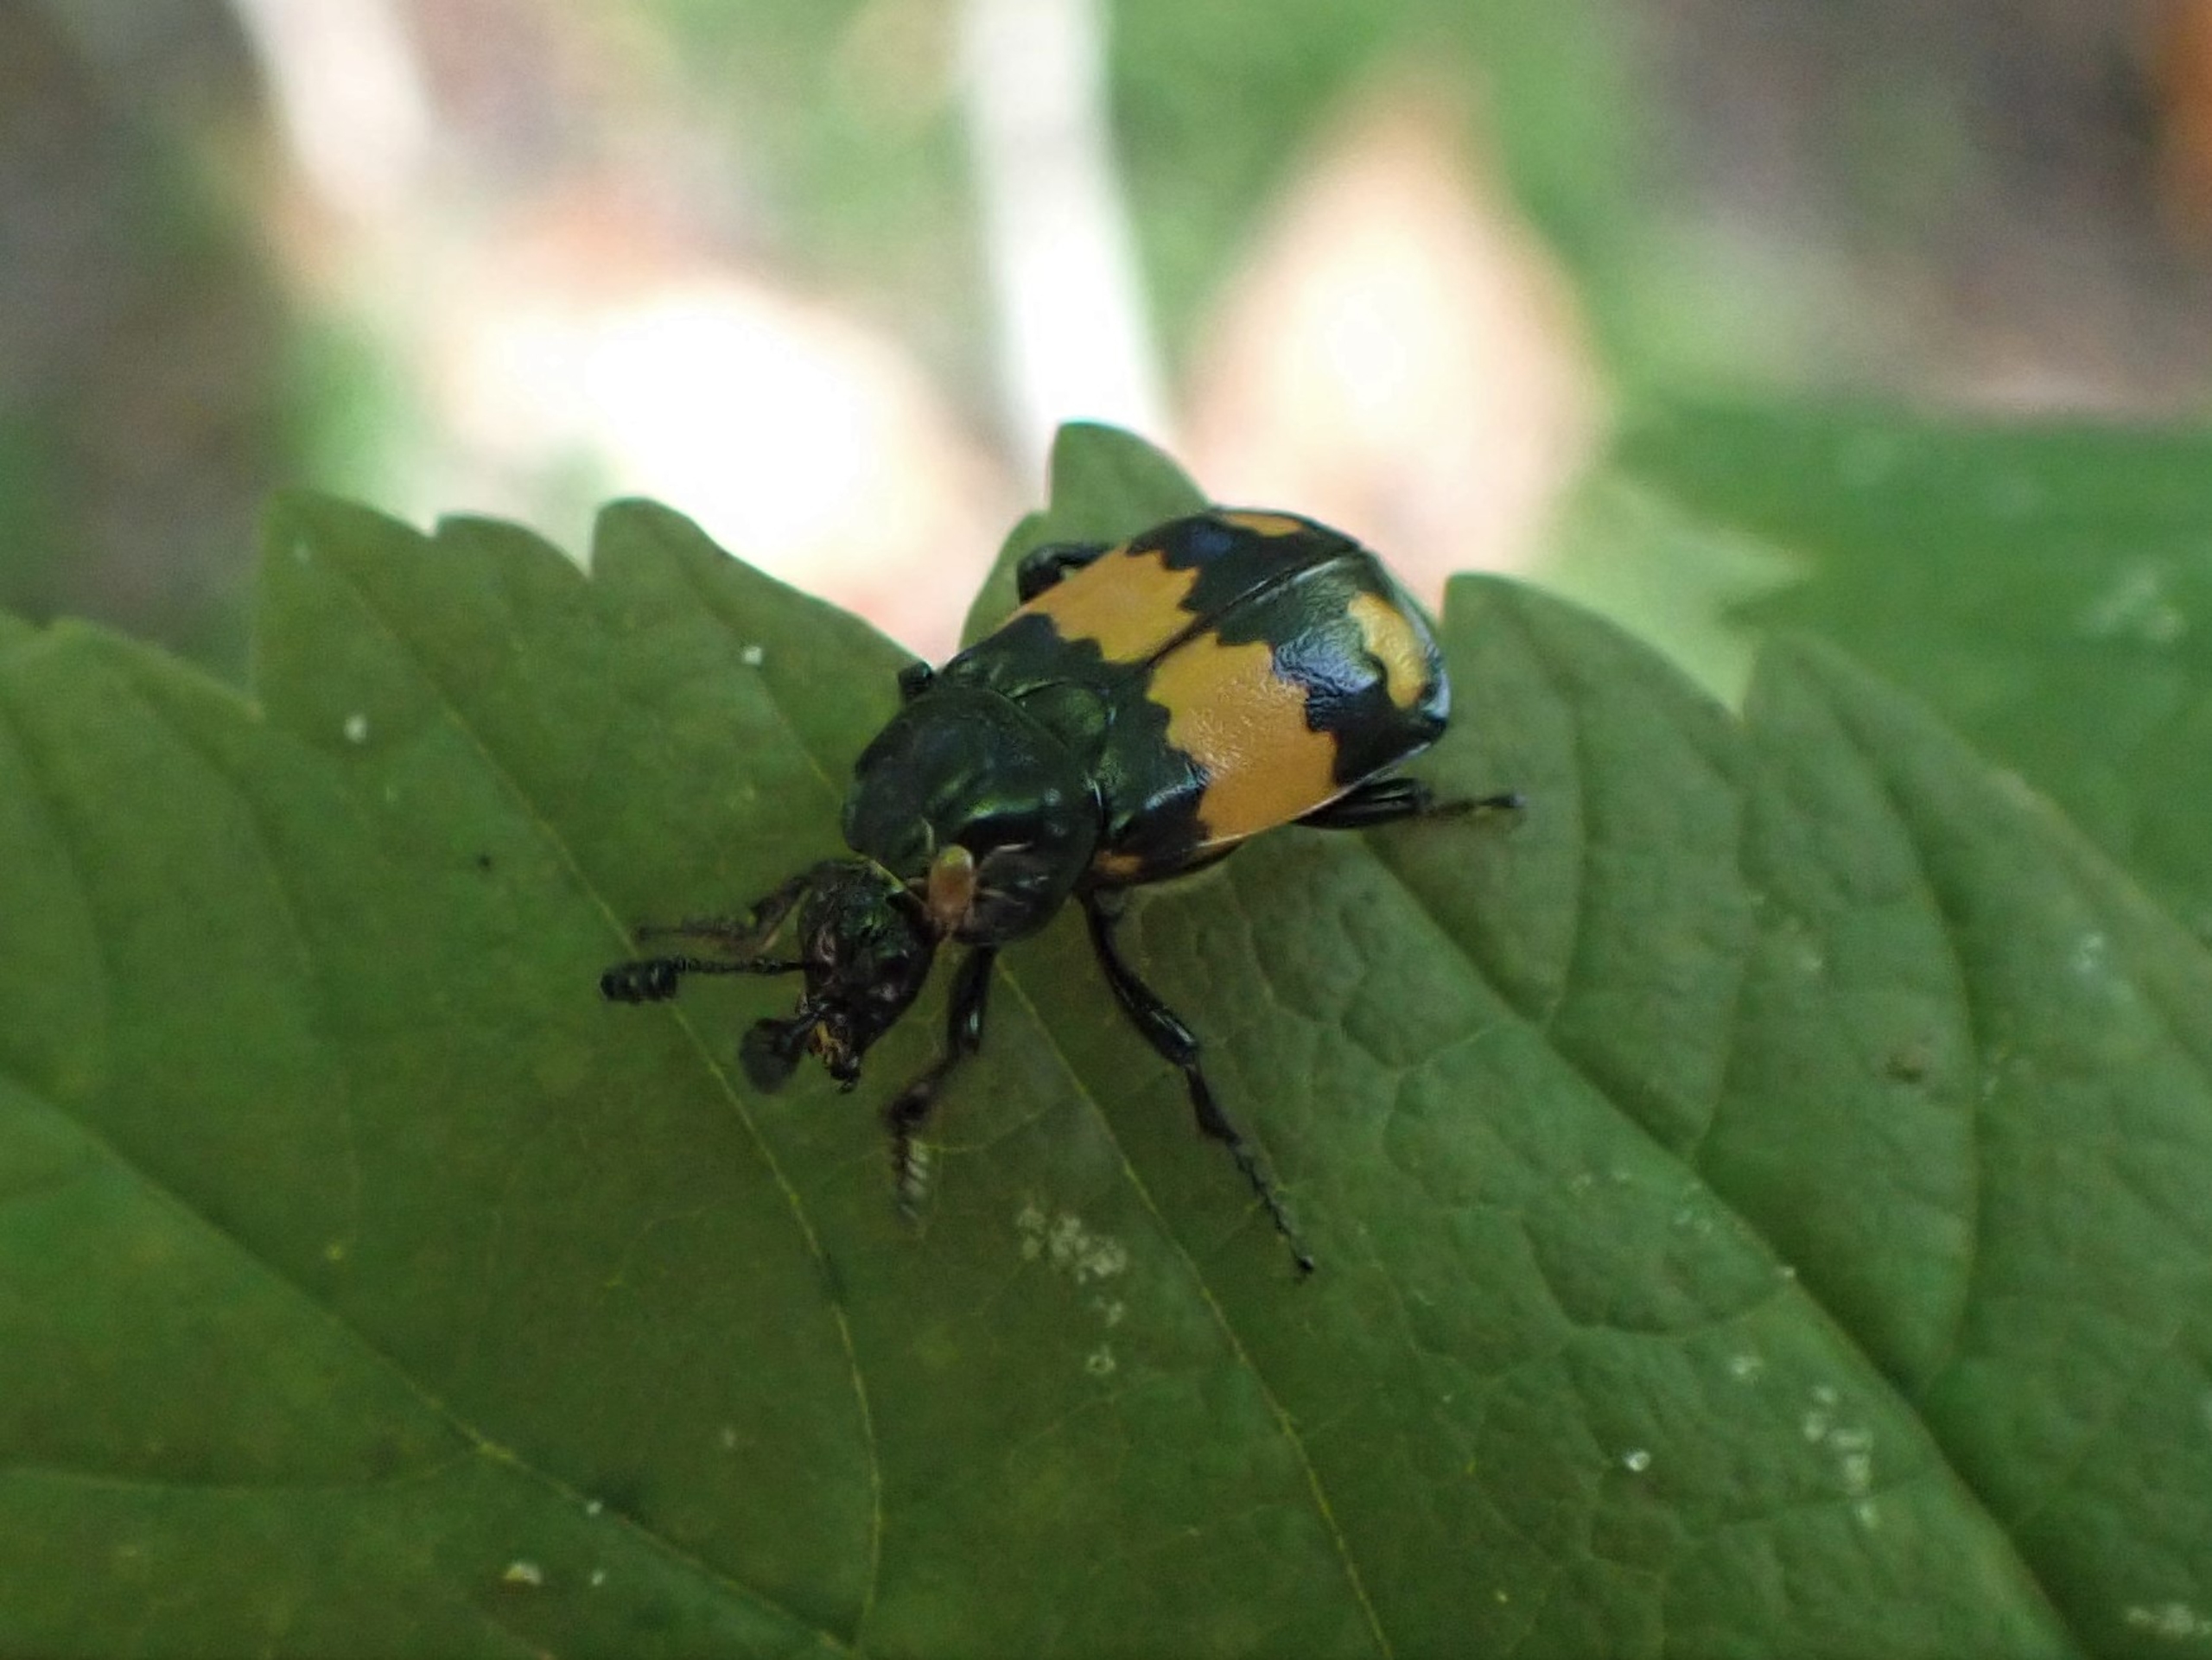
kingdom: Animalia
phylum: Arthropoda
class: Insecta
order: Coleoptera
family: Staphylinidae
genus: Nicrophorus
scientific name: Nicrophorus vespilloides
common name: Sortkøllet ådselgraver
